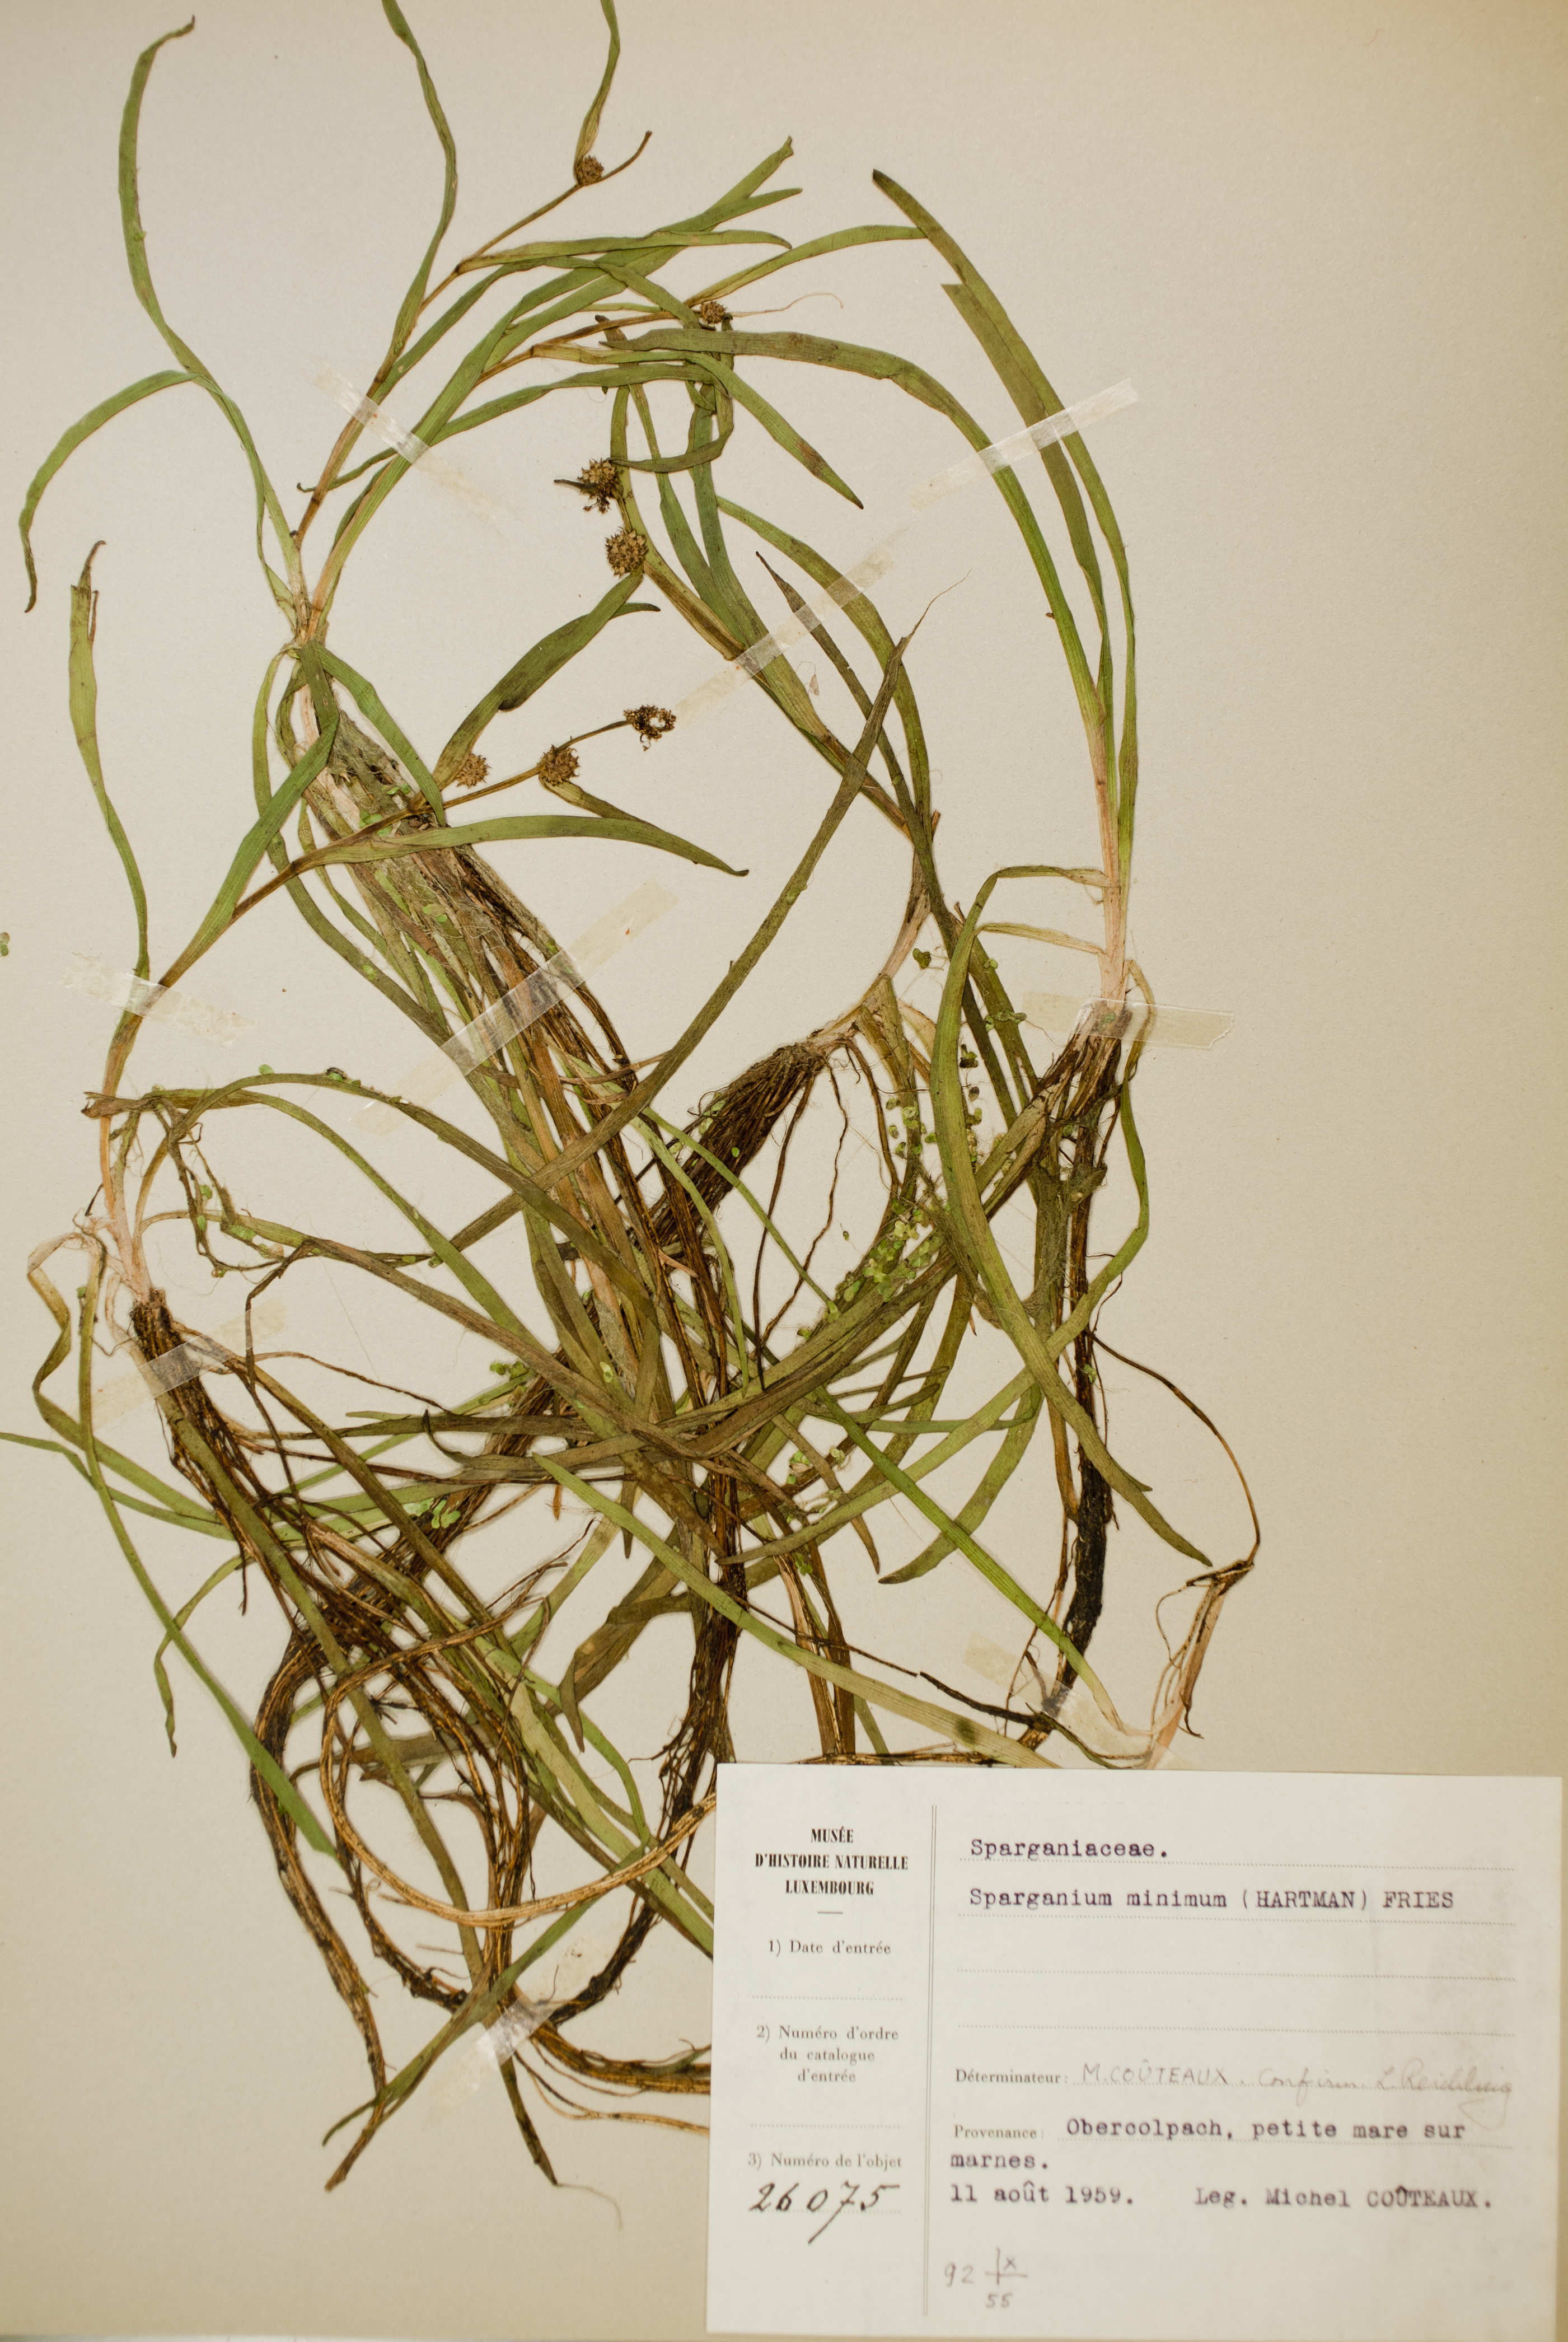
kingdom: Plantae
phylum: Tracheophyta
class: Liliopsida
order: Poales
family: Typhaceae
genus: Sparganium
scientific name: Sparganium natans
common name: Least bur-reed
